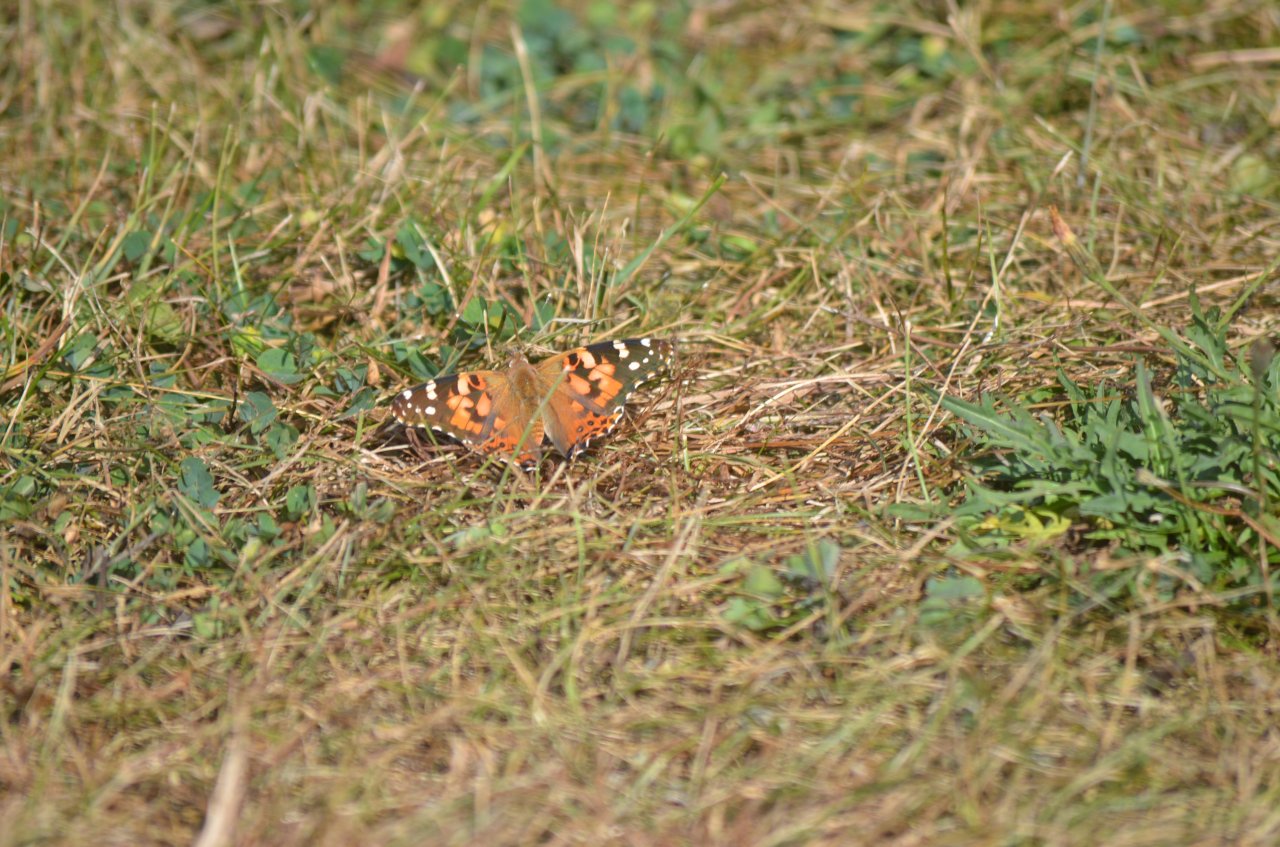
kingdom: Animalia
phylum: Arthropoda
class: Insecta
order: Lepidoptera
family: Nymphalidae
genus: Vanessa
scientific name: Vanessa cardui
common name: Painted Lady
